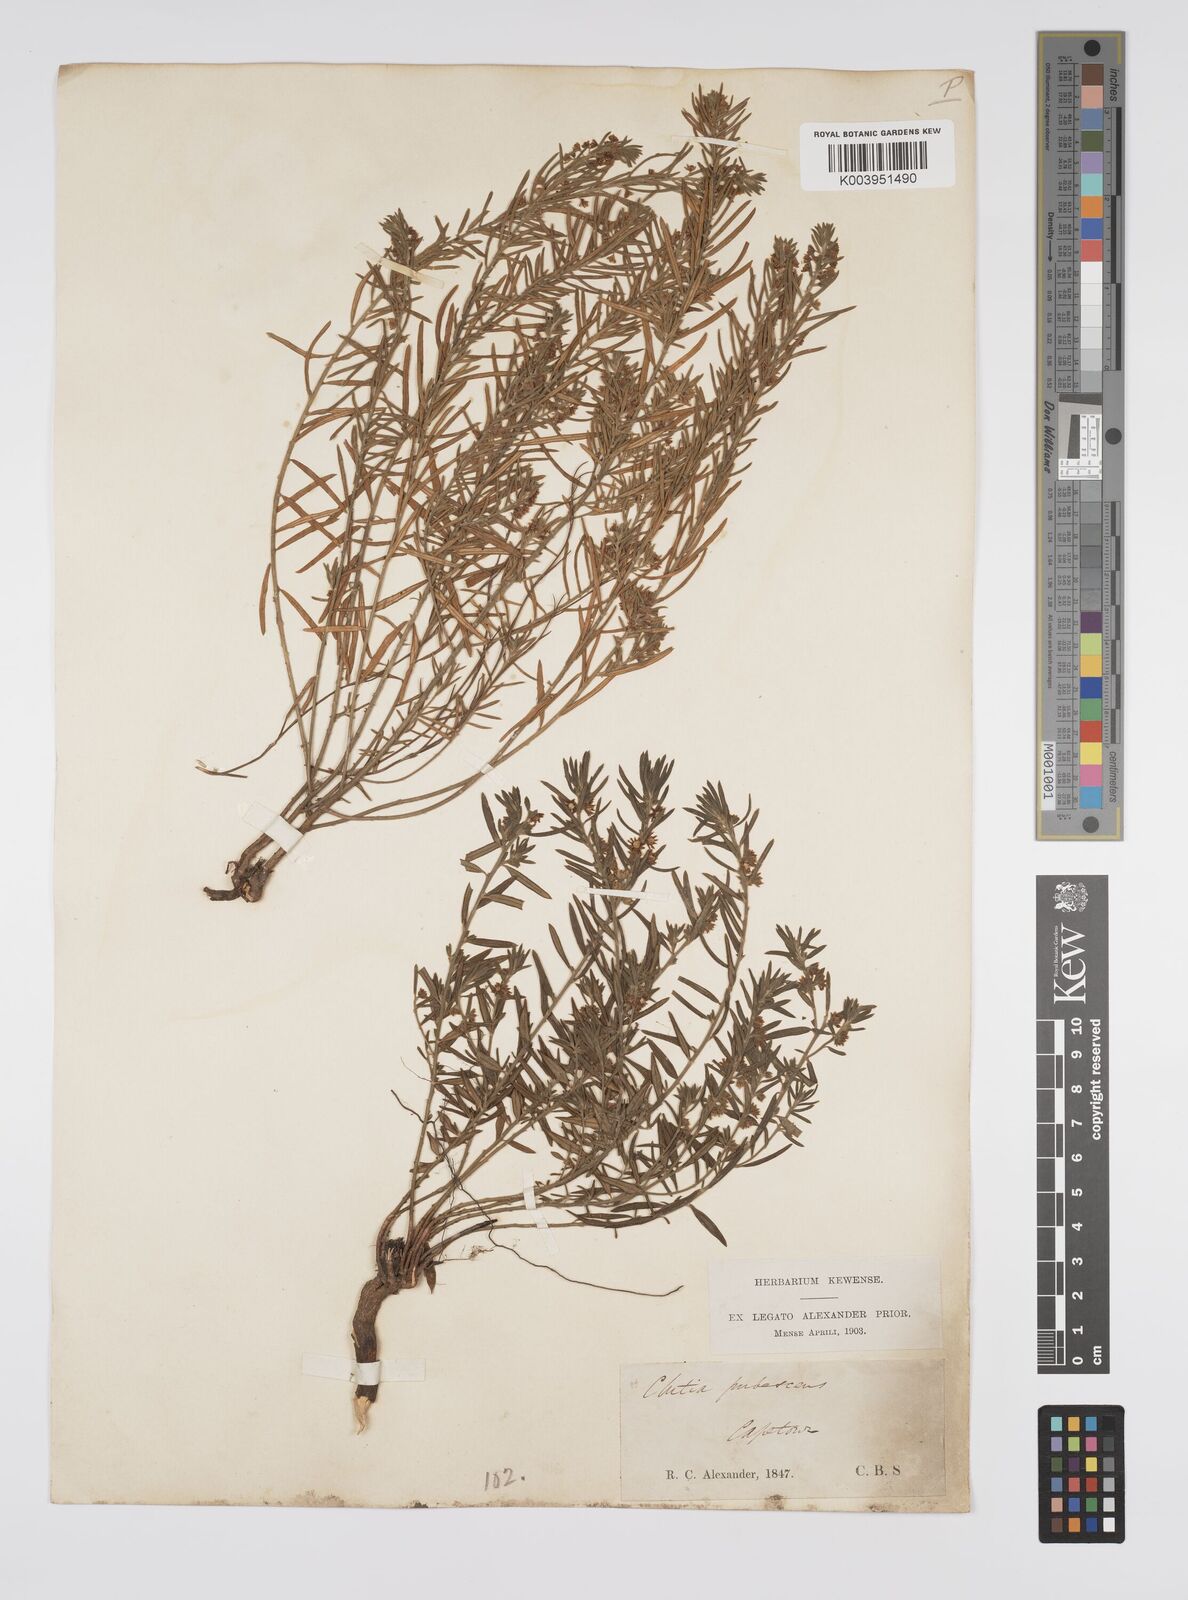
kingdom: Plantae
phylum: Tracheophyta
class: Magnoliopsida
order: Malpighiales
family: Peraceae
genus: Clutia
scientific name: Clutia
